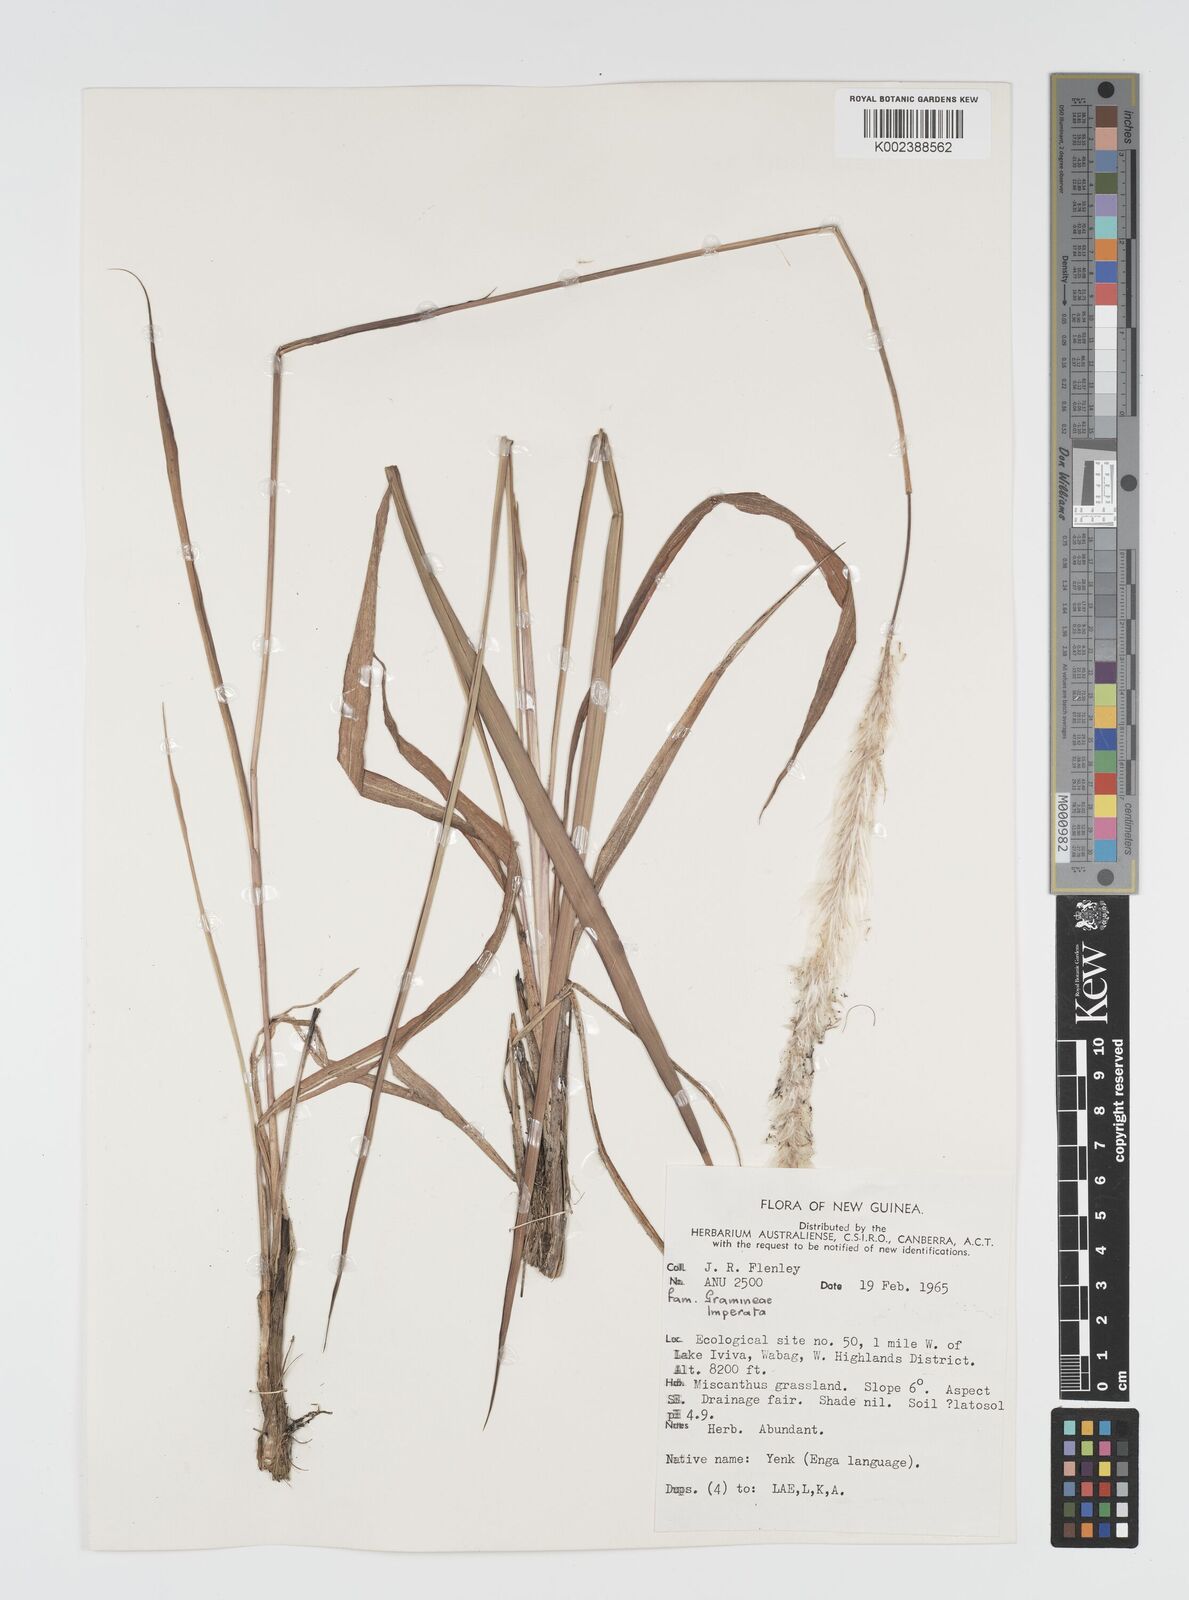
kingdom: Plantae
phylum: Tracheophyta
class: Liliopsida
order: Poales
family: Poaceae
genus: Imperata
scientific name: Imperata cylindrica
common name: Cogongrass
